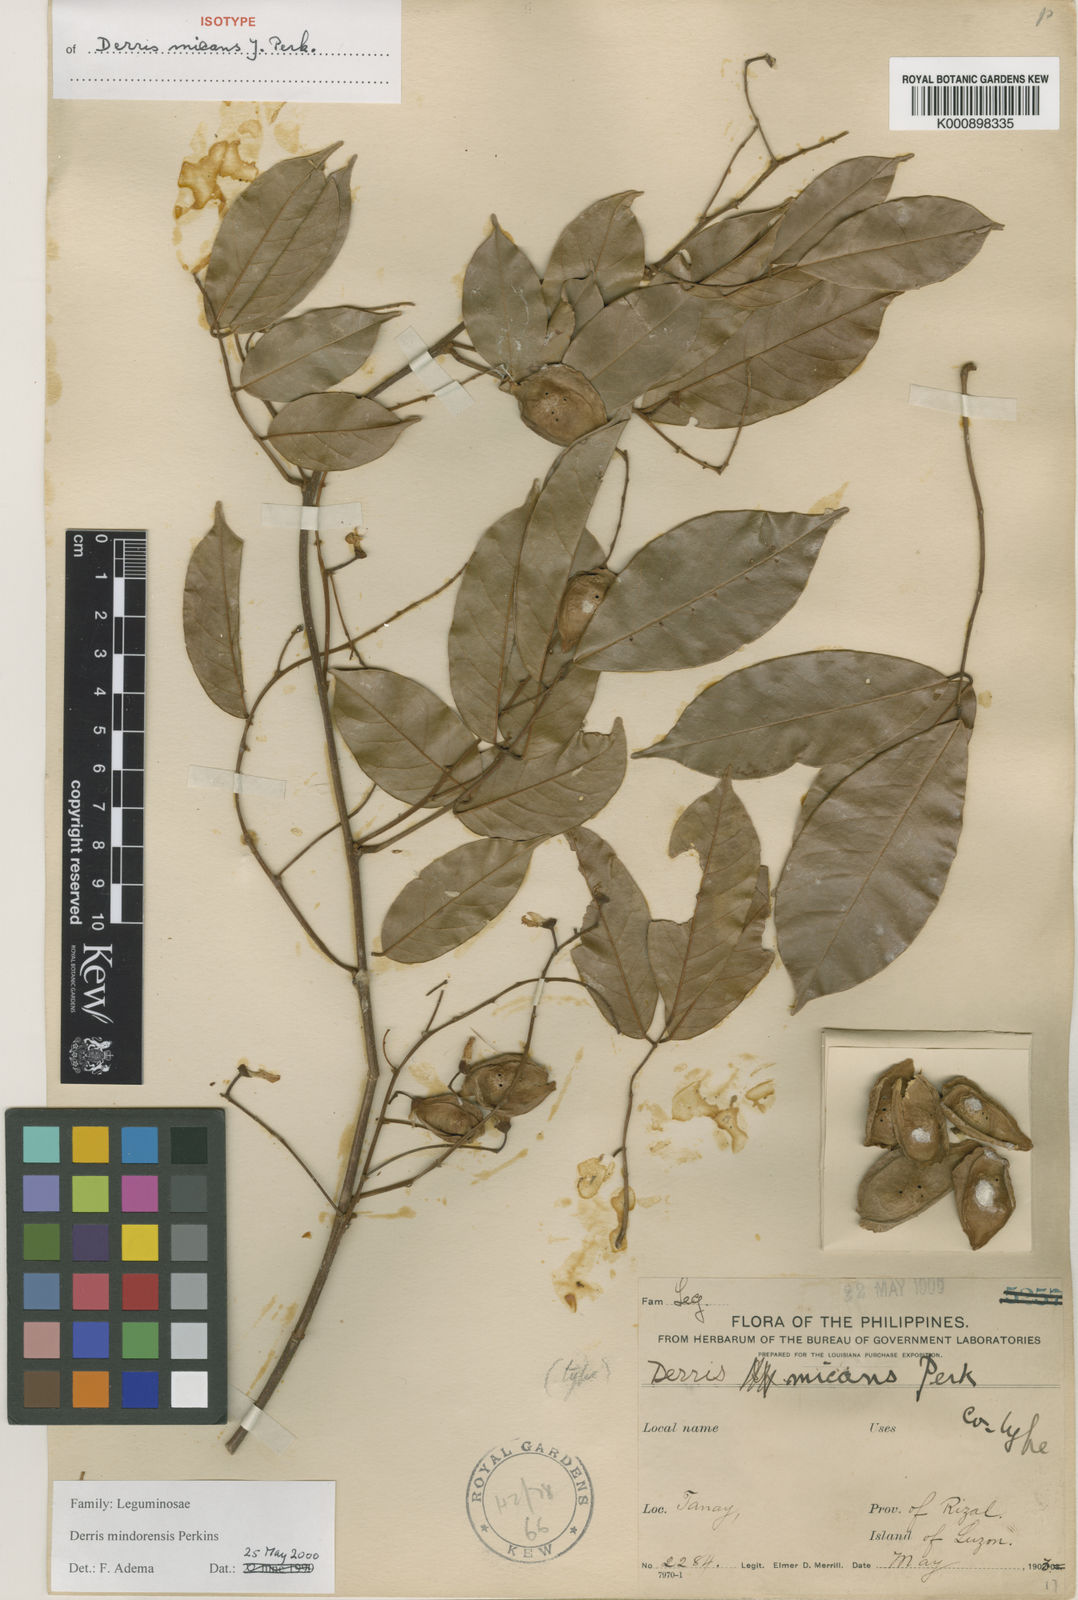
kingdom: Plantae
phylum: Tracheophyta
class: Magnoliopsida
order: Fabales
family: Fabaceae
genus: Derris
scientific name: Derris pubipetala
